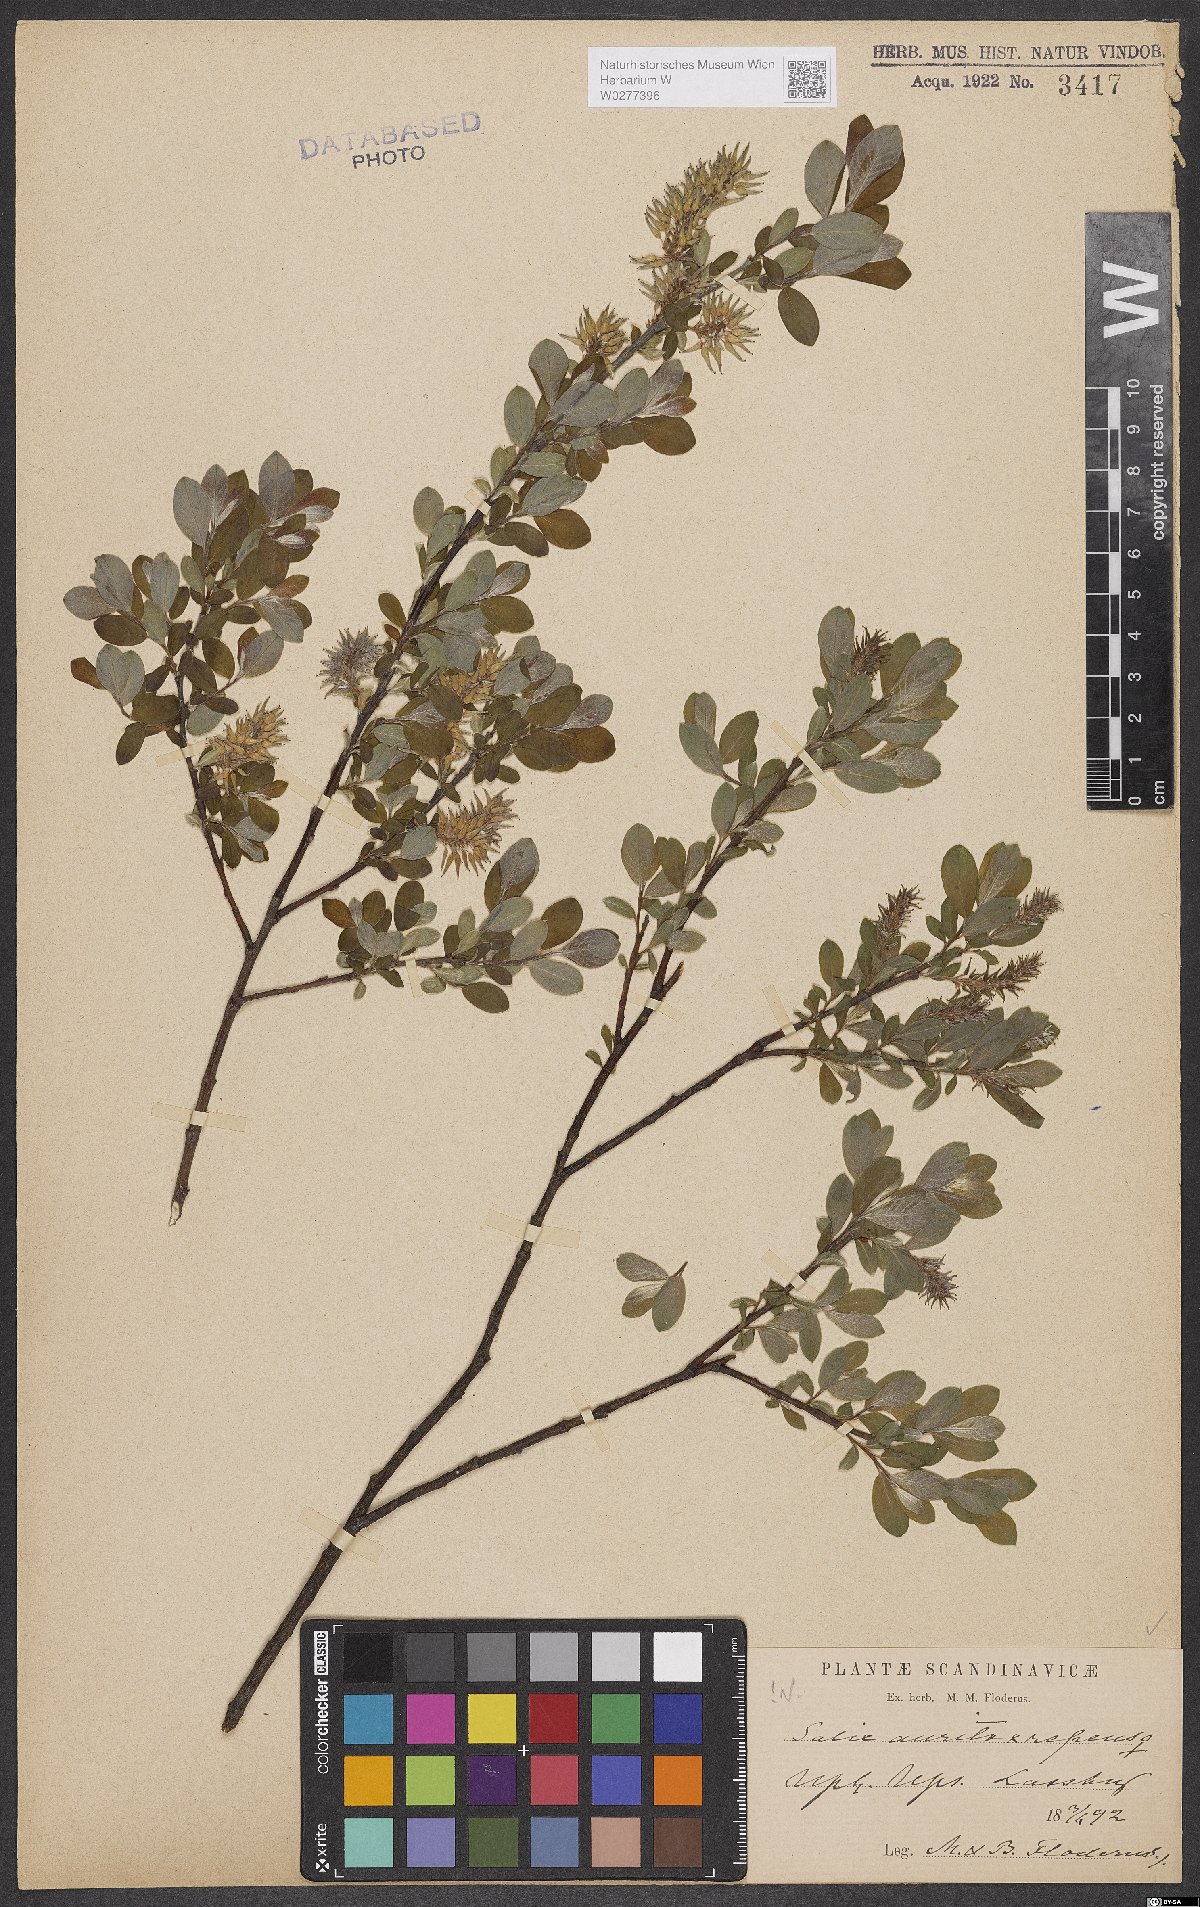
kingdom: Plantae
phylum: Tracheophyta
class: Magnoliopsida
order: Malpighiales
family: Salicaceae
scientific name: Salicaceae
